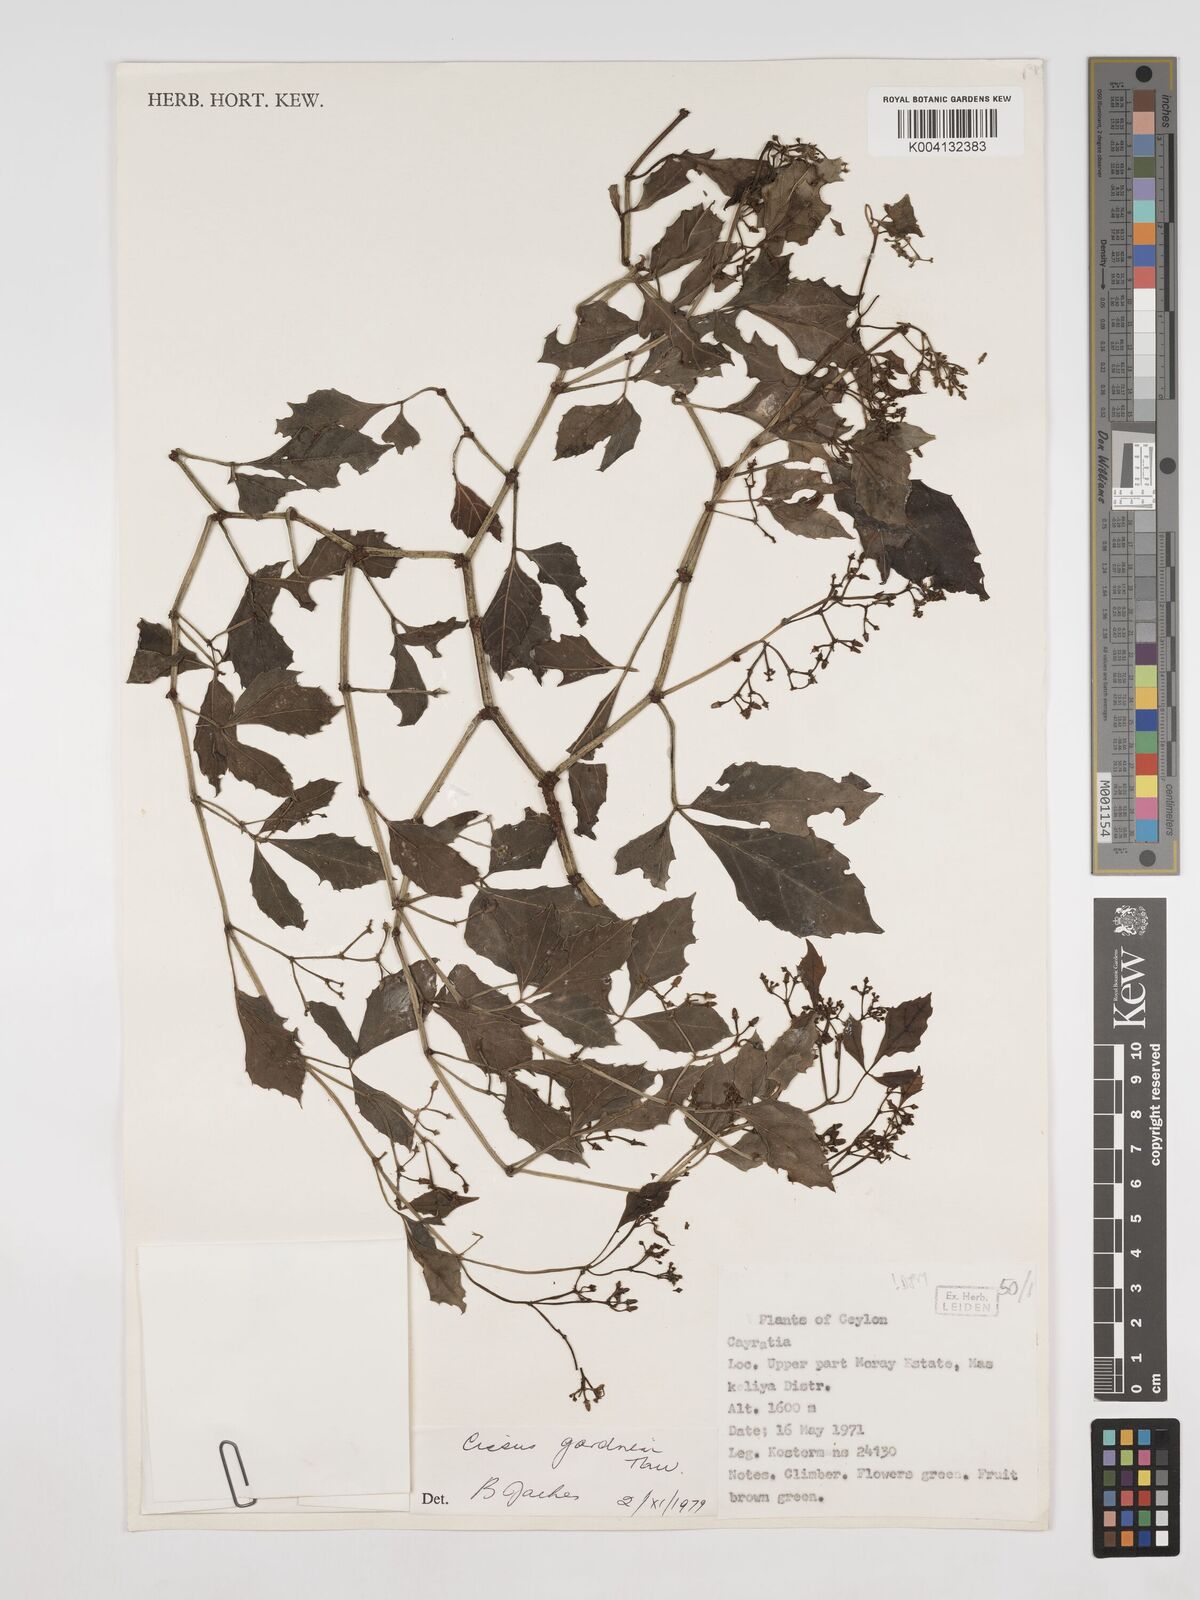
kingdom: Plantae
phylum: Tracheophyta
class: Magnoliopsida
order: Vitales
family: Vitaceae
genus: Cissus
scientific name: Cissus gardneri
